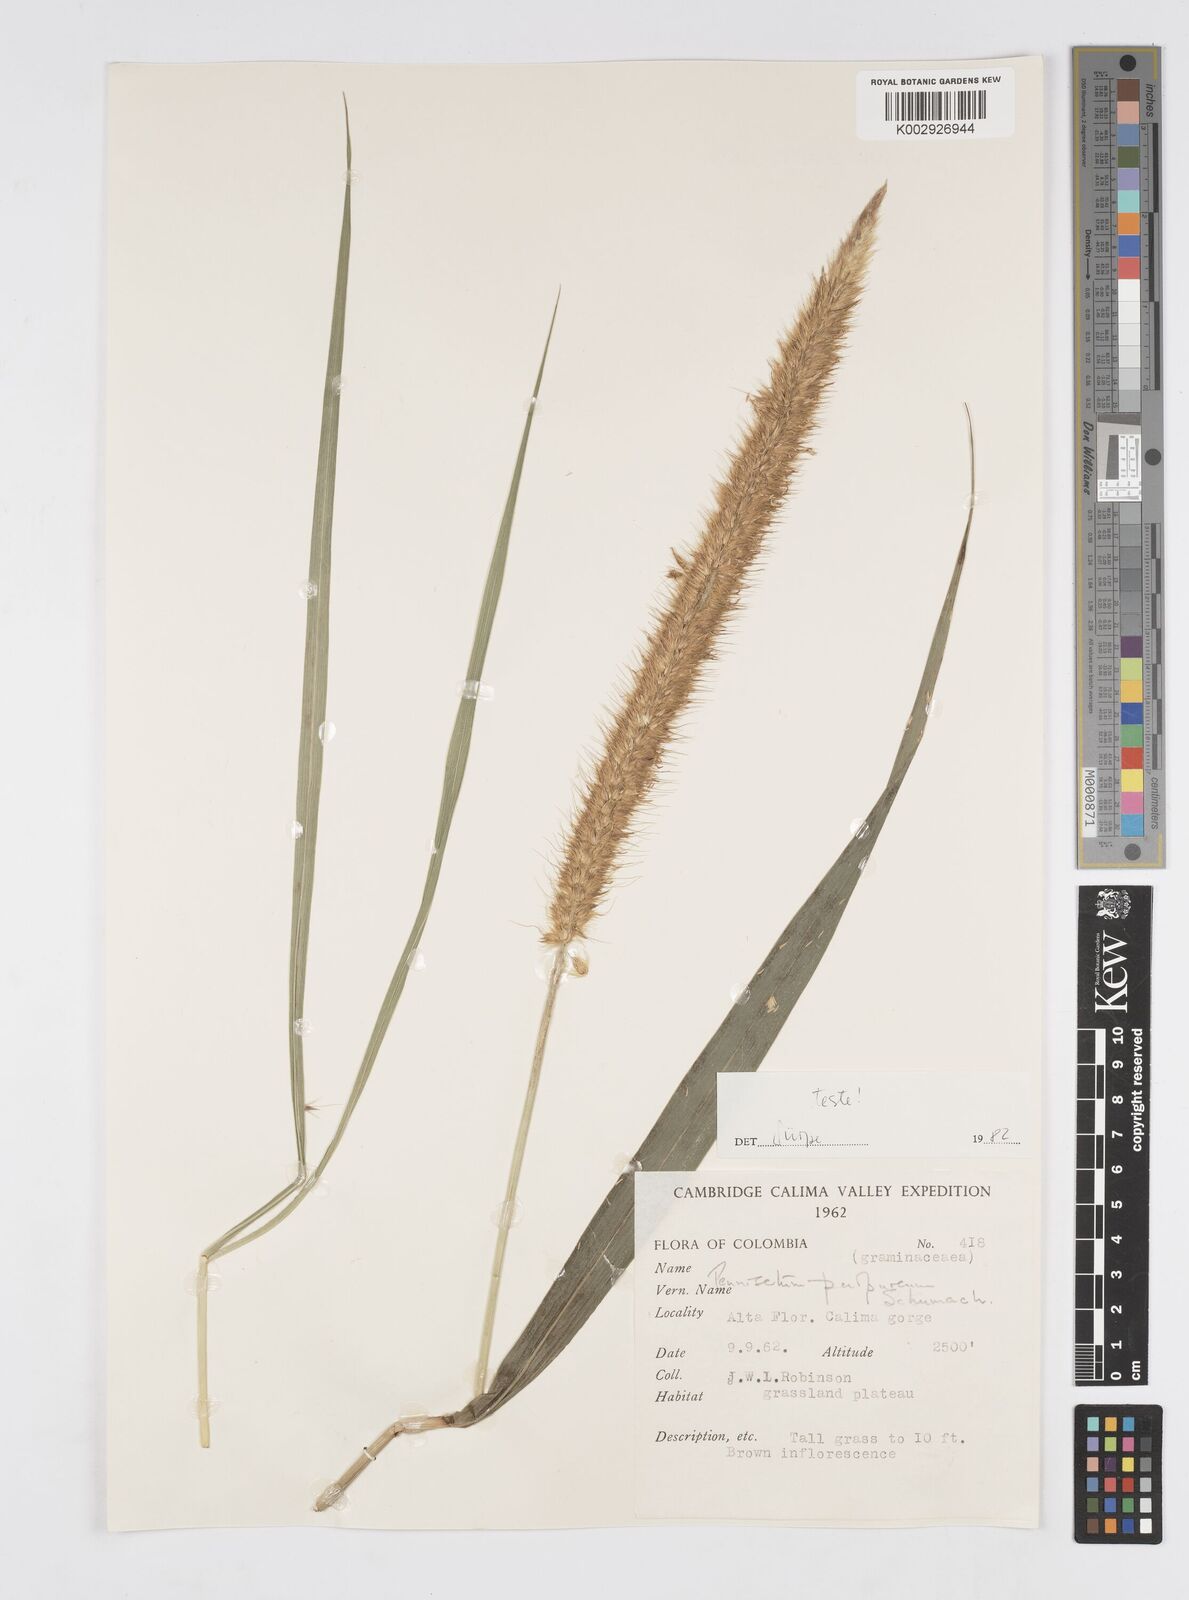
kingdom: Plantae
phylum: Tracheophyta
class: Liliopsida
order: Poales
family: Poaceae
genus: Cenchrus
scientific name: Cenchrus purpureus
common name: Elephant grass
